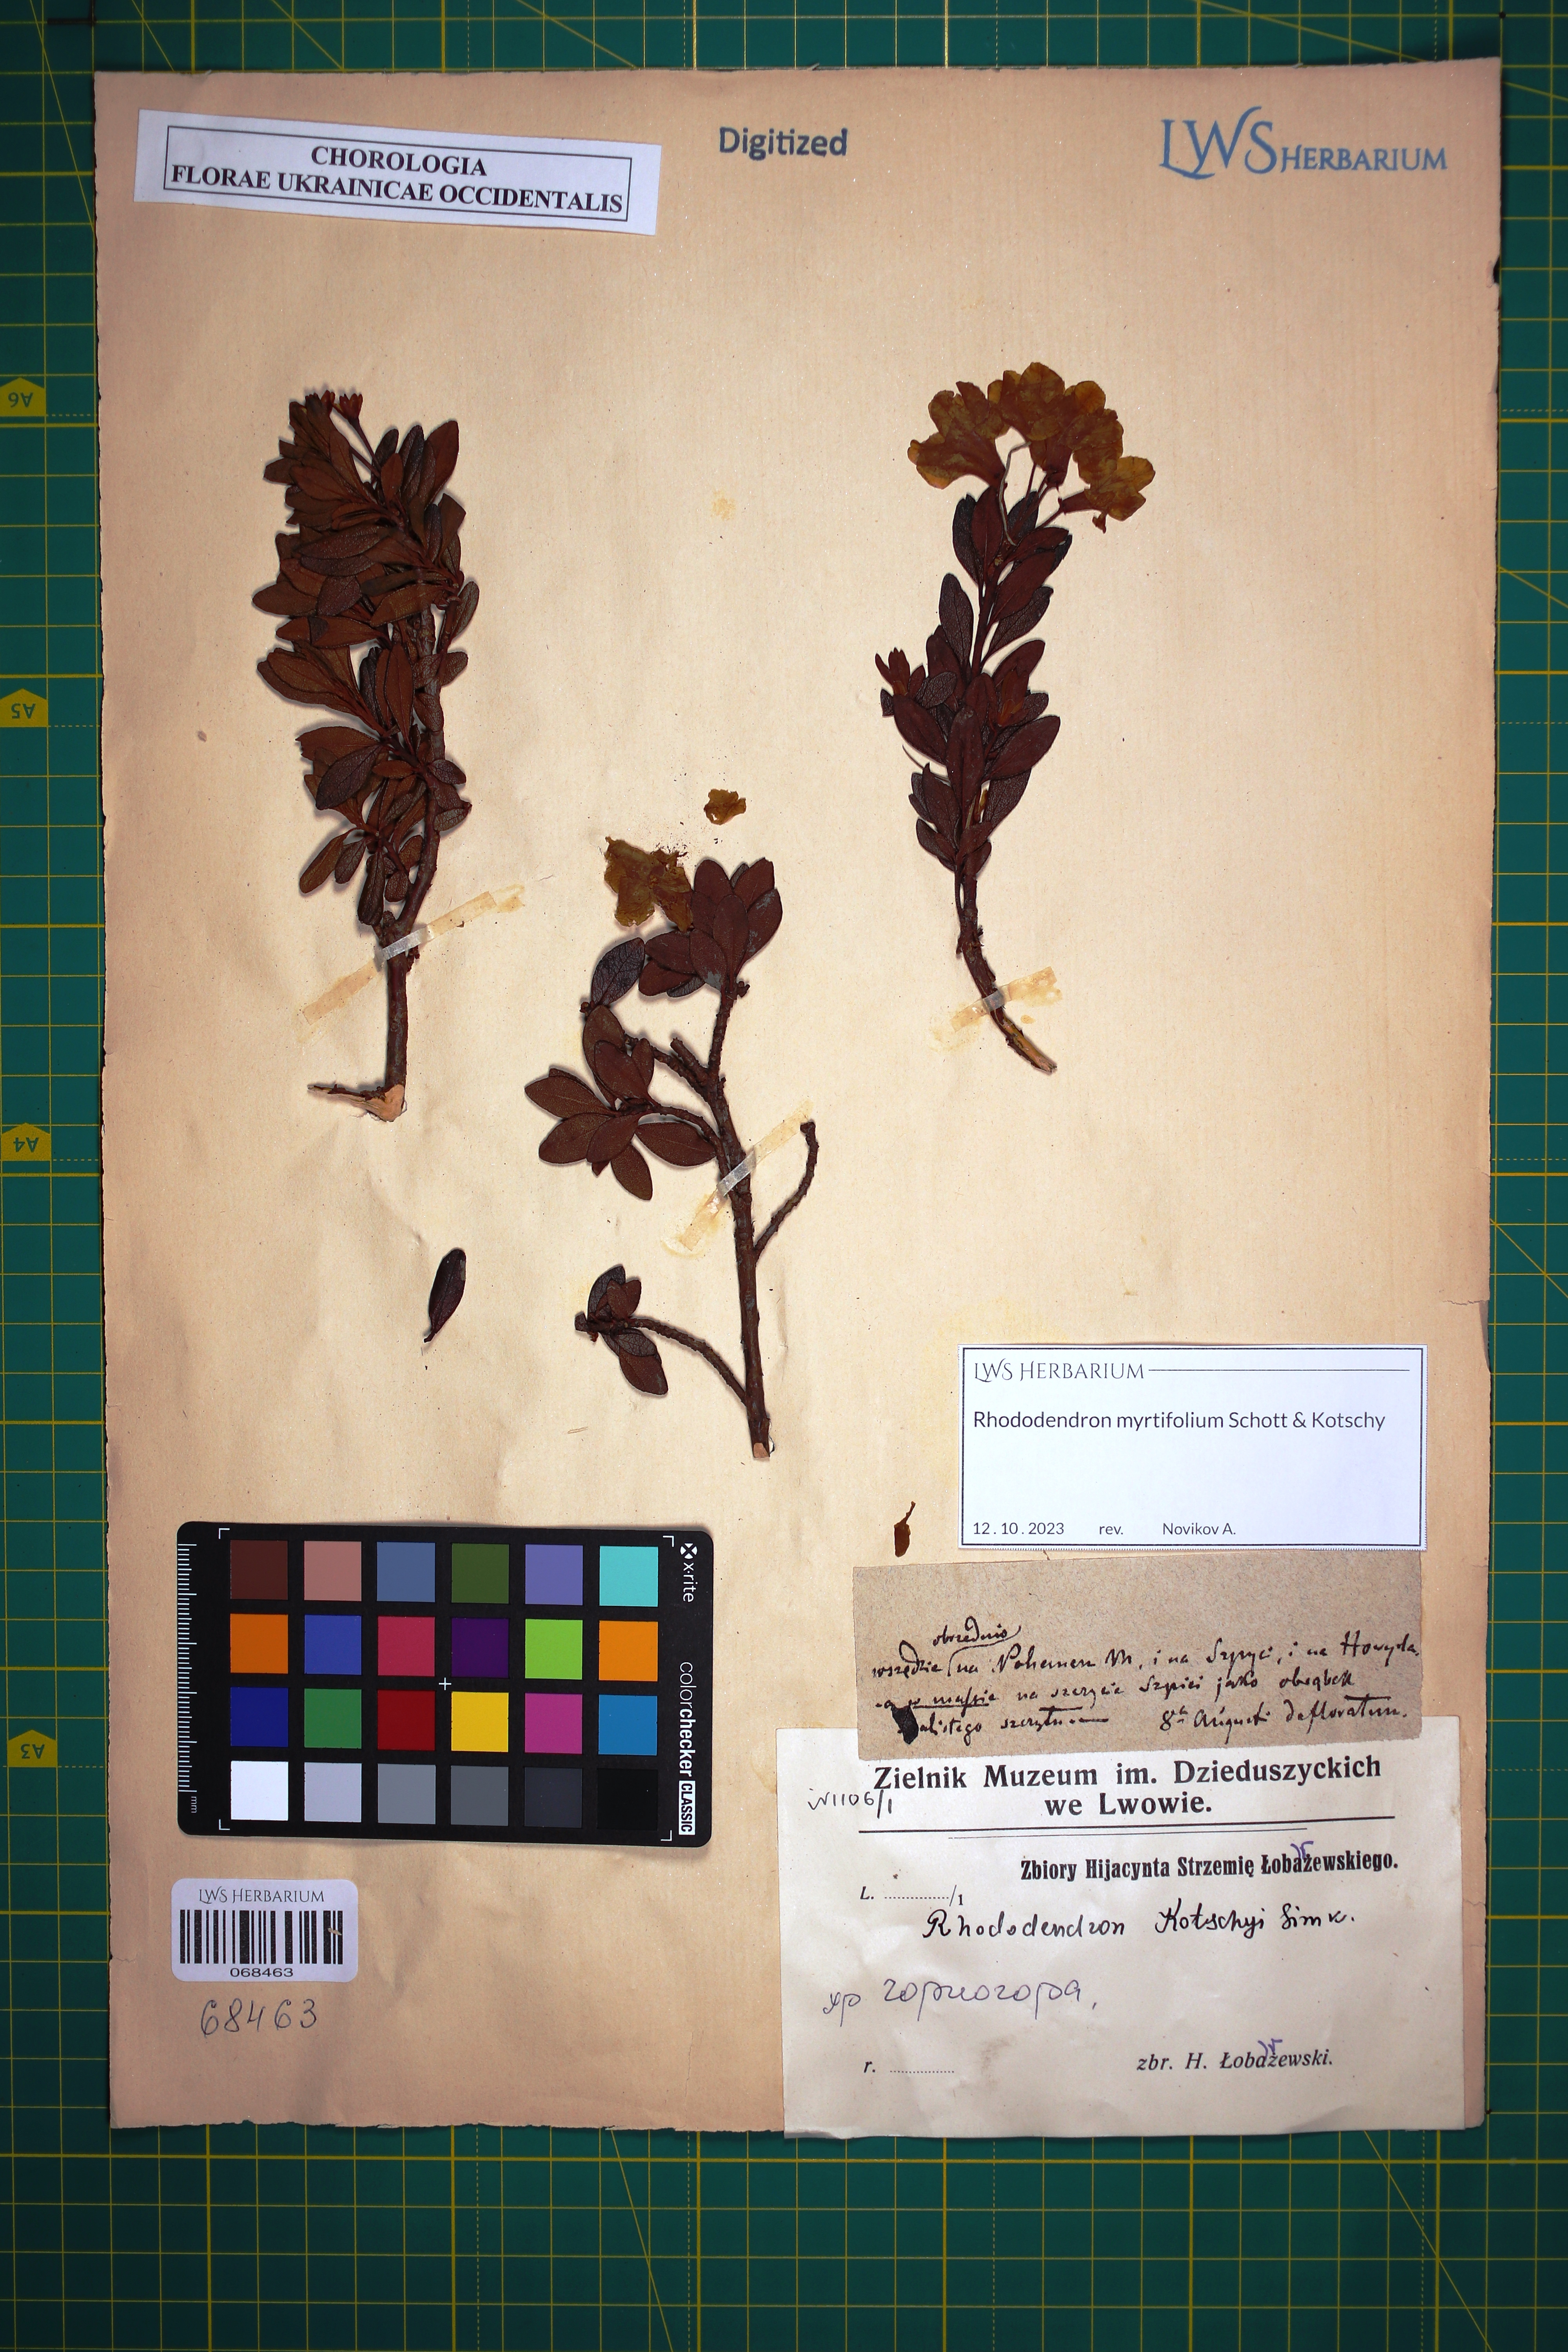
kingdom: Plantae
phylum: Tracheophyta
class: Magnoliopsida
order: Ericales
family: Ericaceae
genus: Rhododendron
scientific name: Rhododendron kotschyi
